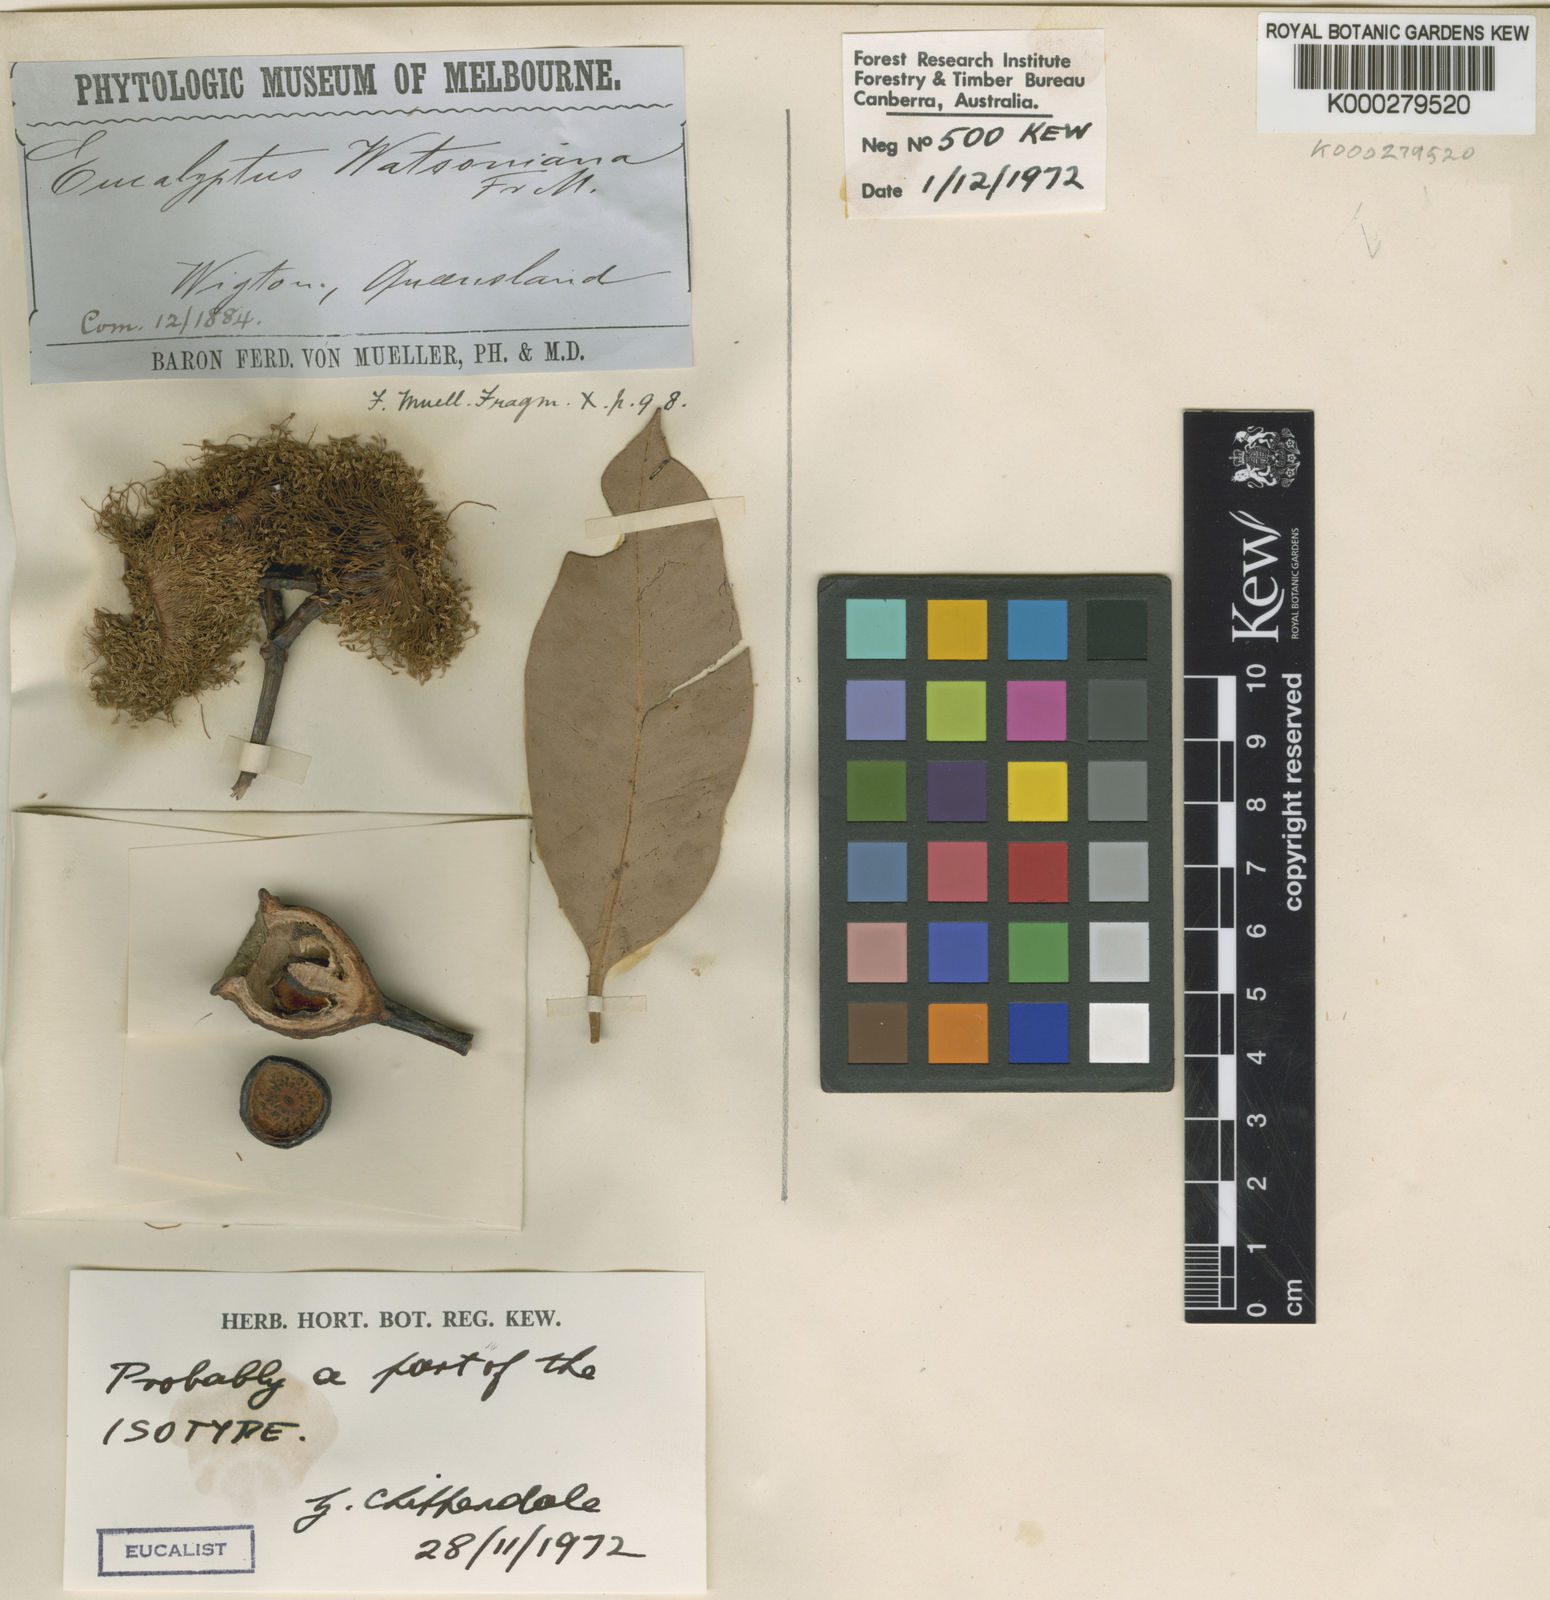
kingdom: Plantae
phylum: Tracheophyta
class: Magnoliopsida
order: Myrtales
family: Myrtaceae
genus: Corymbia
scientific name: Corymbia watsoniana
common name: Large-fruited yellowjacket
